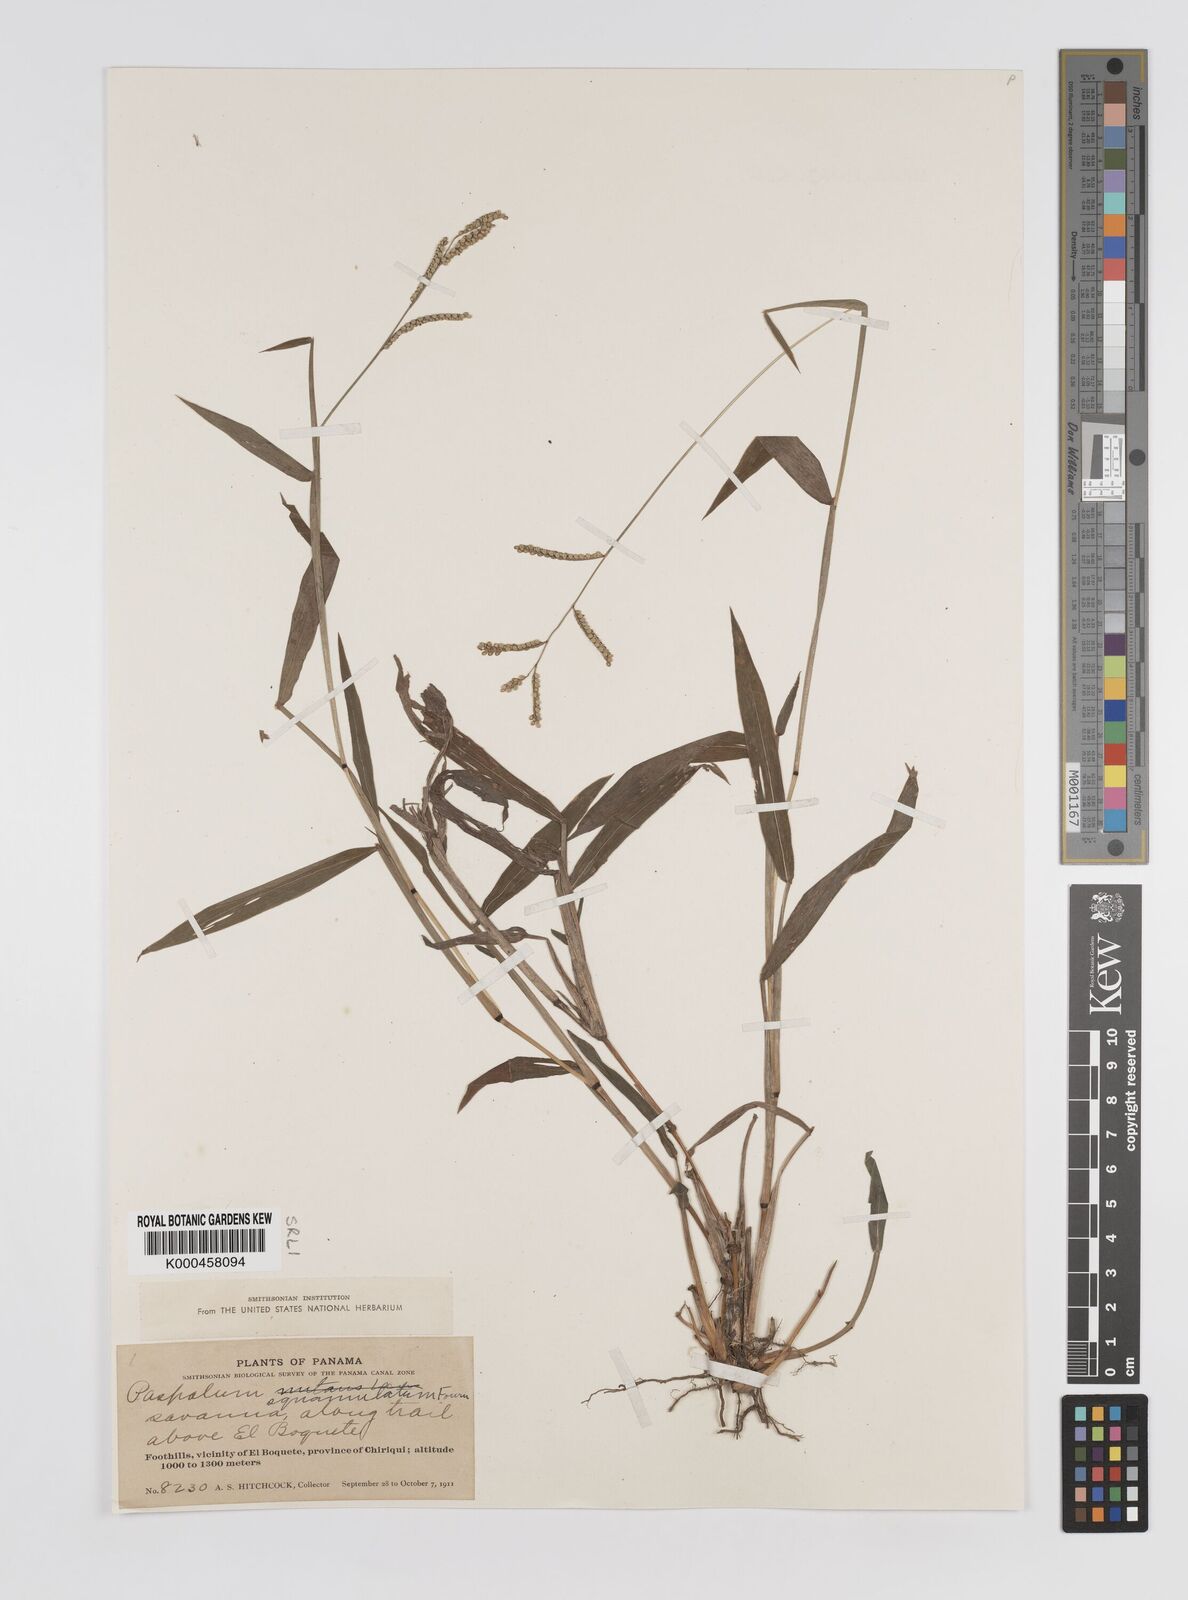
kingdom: Plantae
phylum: Tracheophyta
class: Liliopsida
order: Poales
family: Poaceae
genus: Paspalum
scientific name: Paspalum
